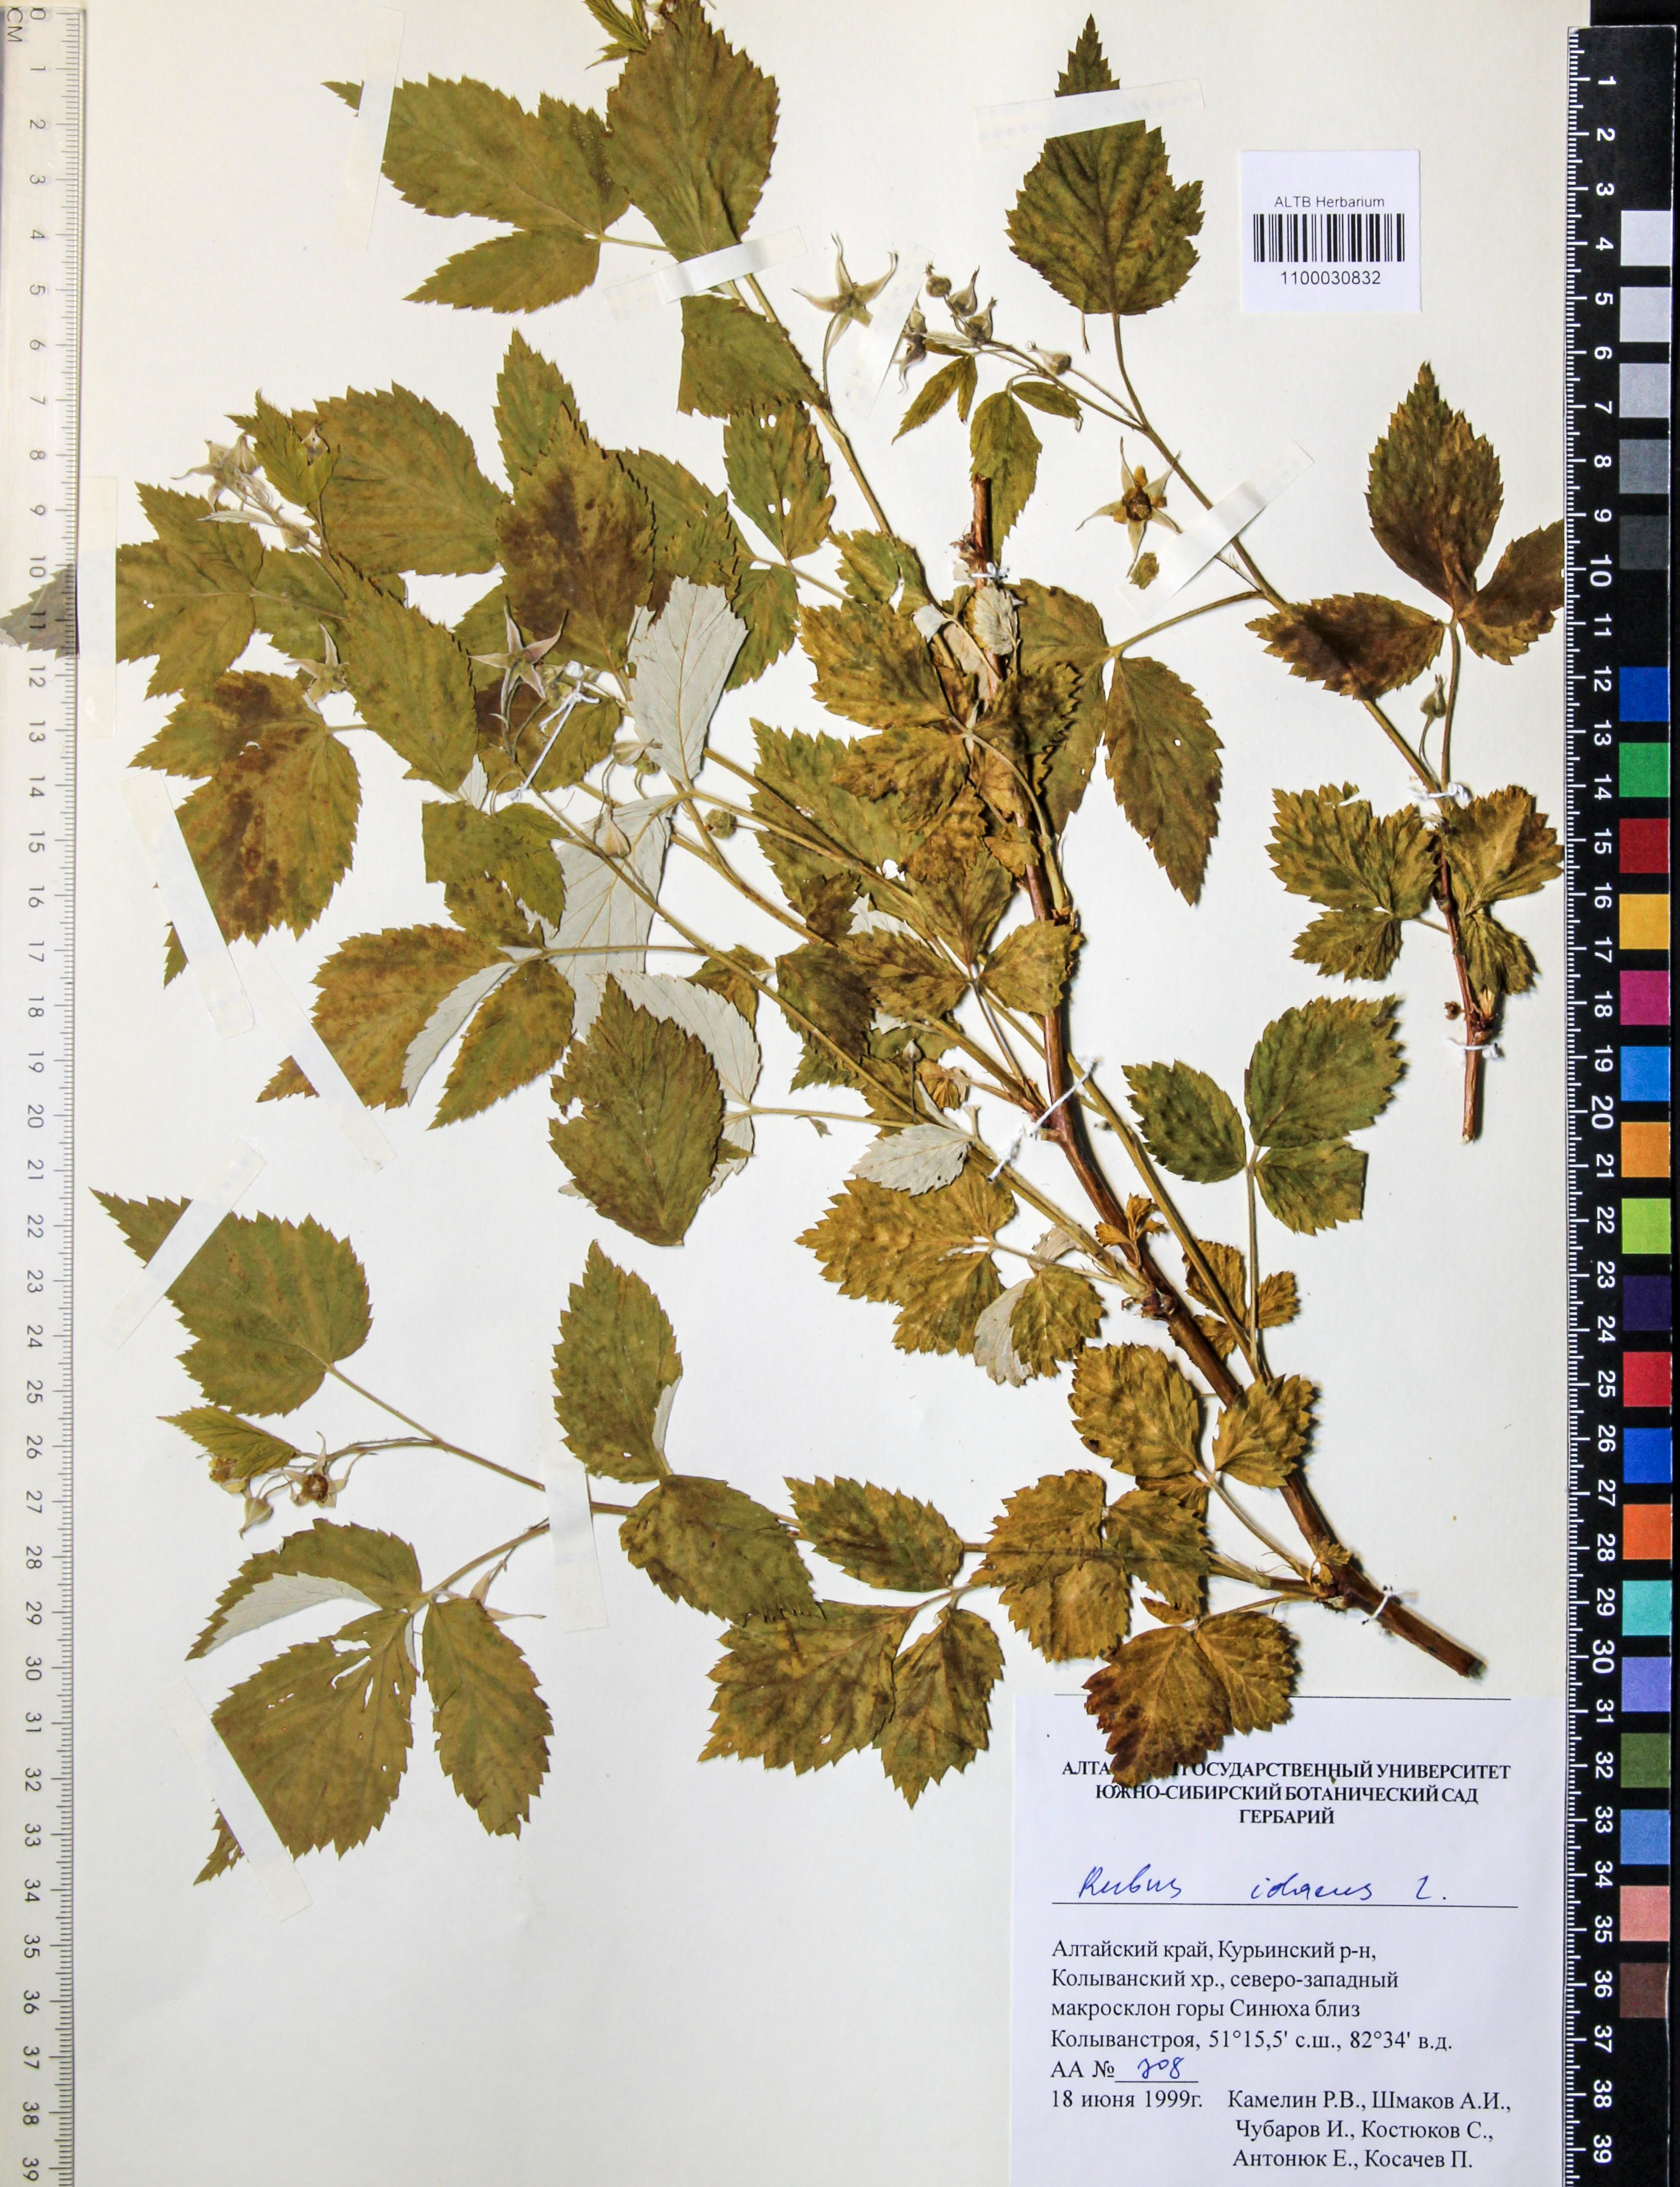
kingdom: Plantae
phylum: Tracheophyta
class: Magnoliopsida
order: Rosales
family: Rosaceae
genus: Rubus
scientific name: Rubus idaeus
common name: Raspberry
